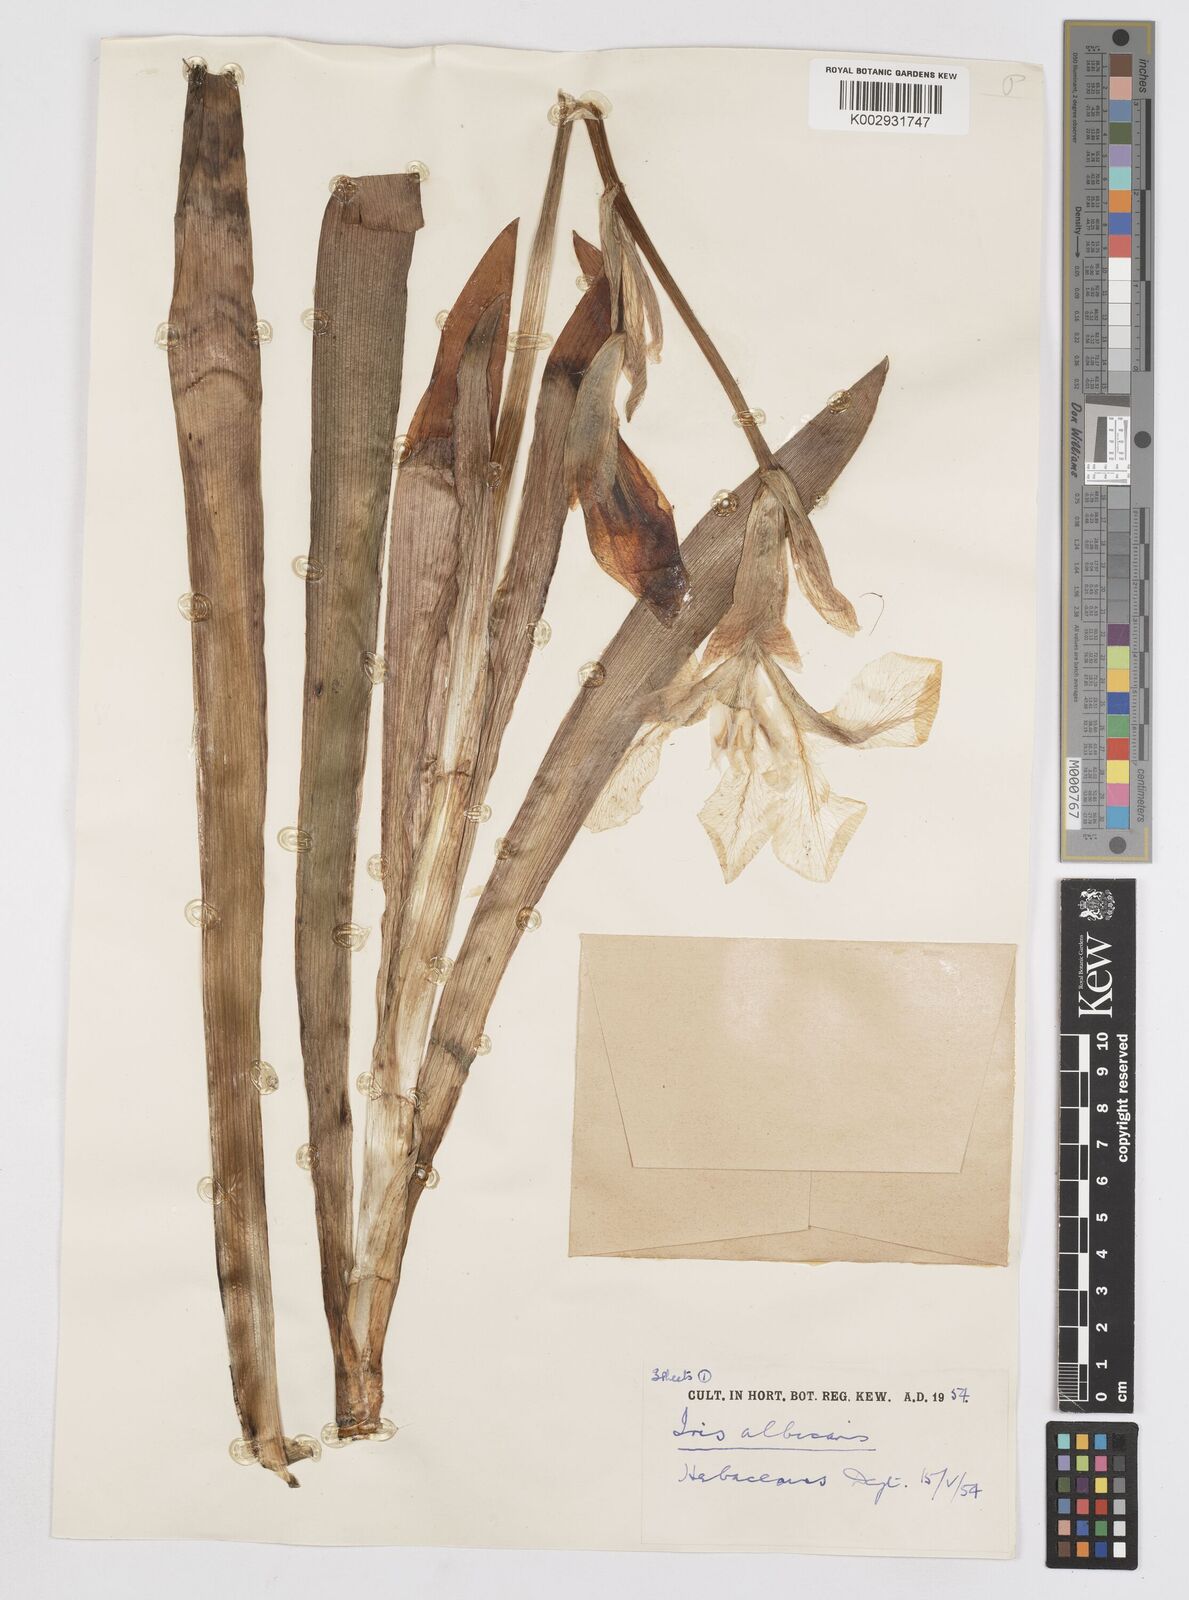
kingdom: Plantae
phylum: Tracheophyta
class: Liliopsida
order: Asparagales
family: Iridaceae
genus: Iris
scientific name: Iris florentina
